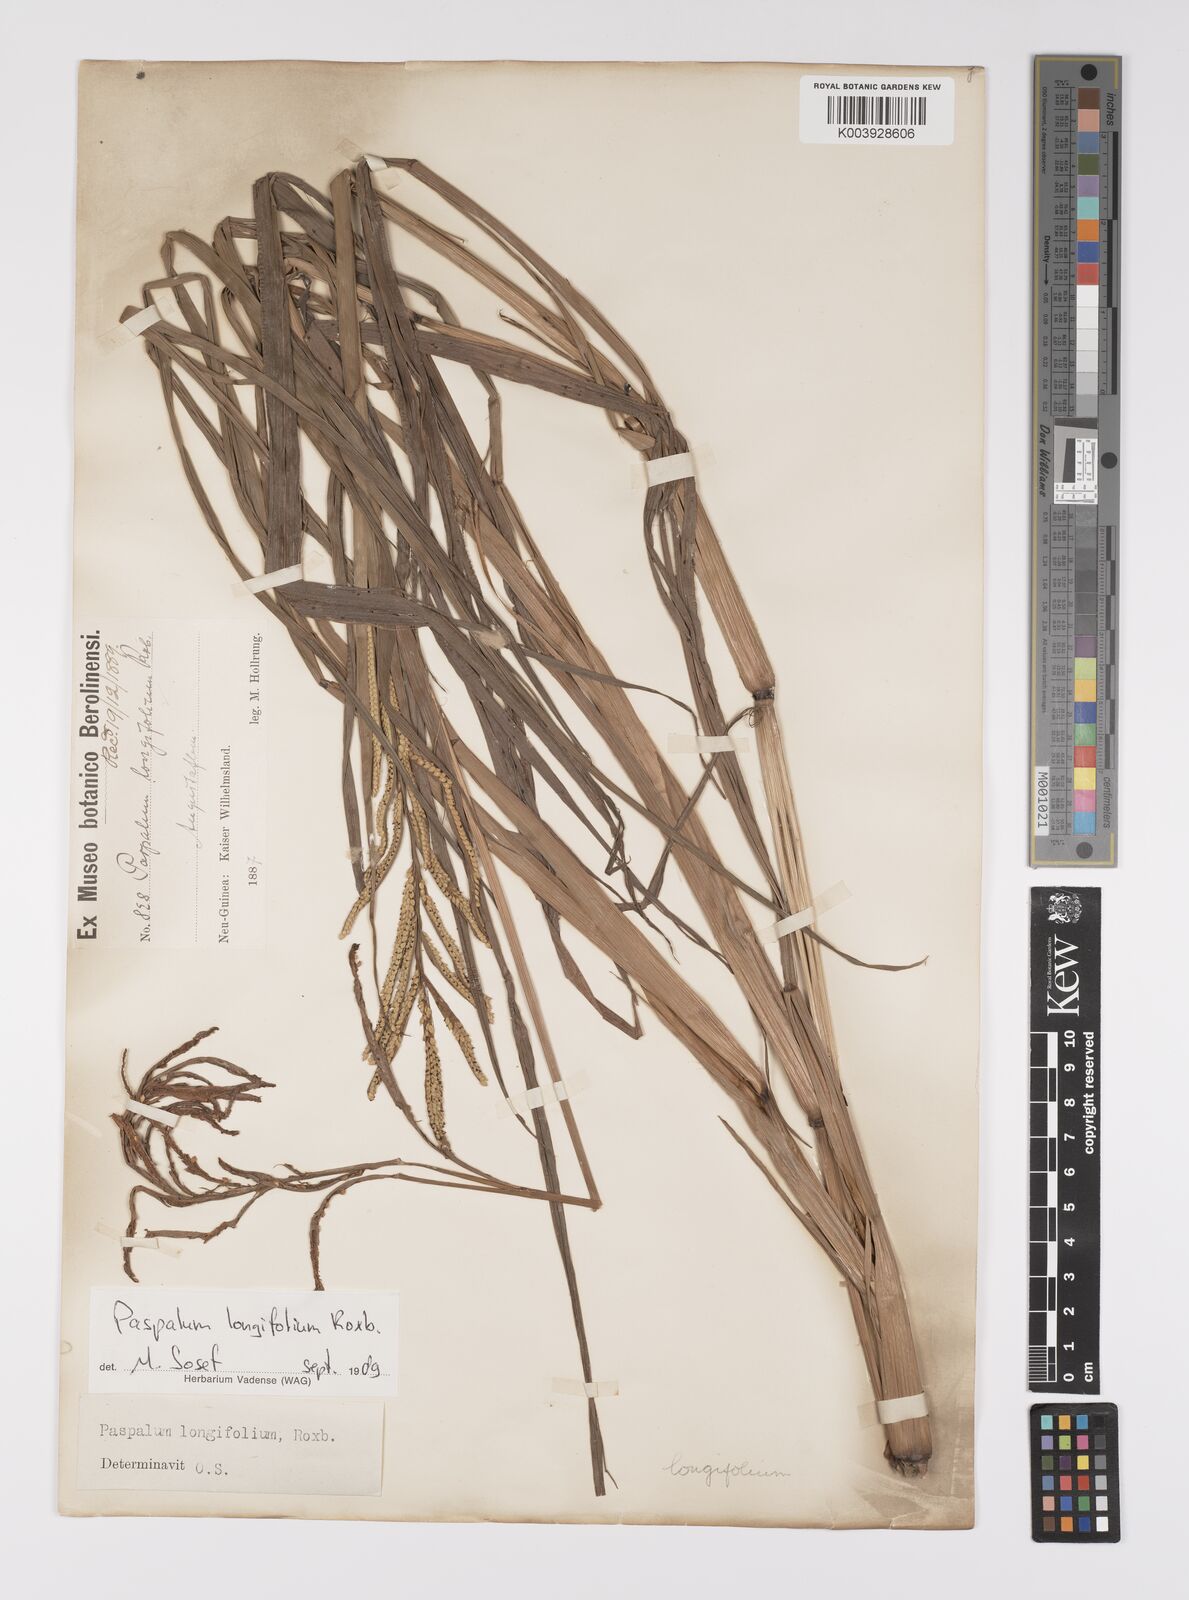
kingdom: Plantae
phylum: Tracheophyta
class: Liliopsida
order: Poales
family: Poaceae
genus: Paspalum
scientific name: Paspalum sumatrense
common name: Long-leaved paspalum
